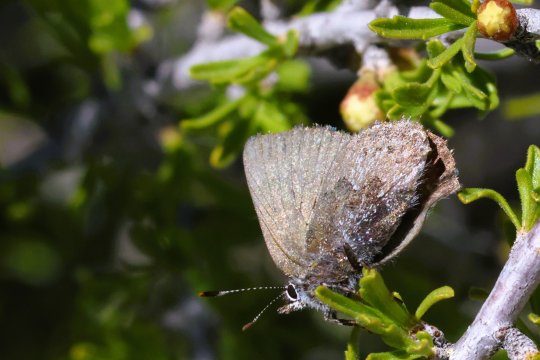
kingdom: Animalia
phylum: Arthropoda
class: Insecta
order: Lepidoptera
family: Lycaenidae
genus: Callophrys
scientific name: Callophrys fotis
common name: Desert Elfin
